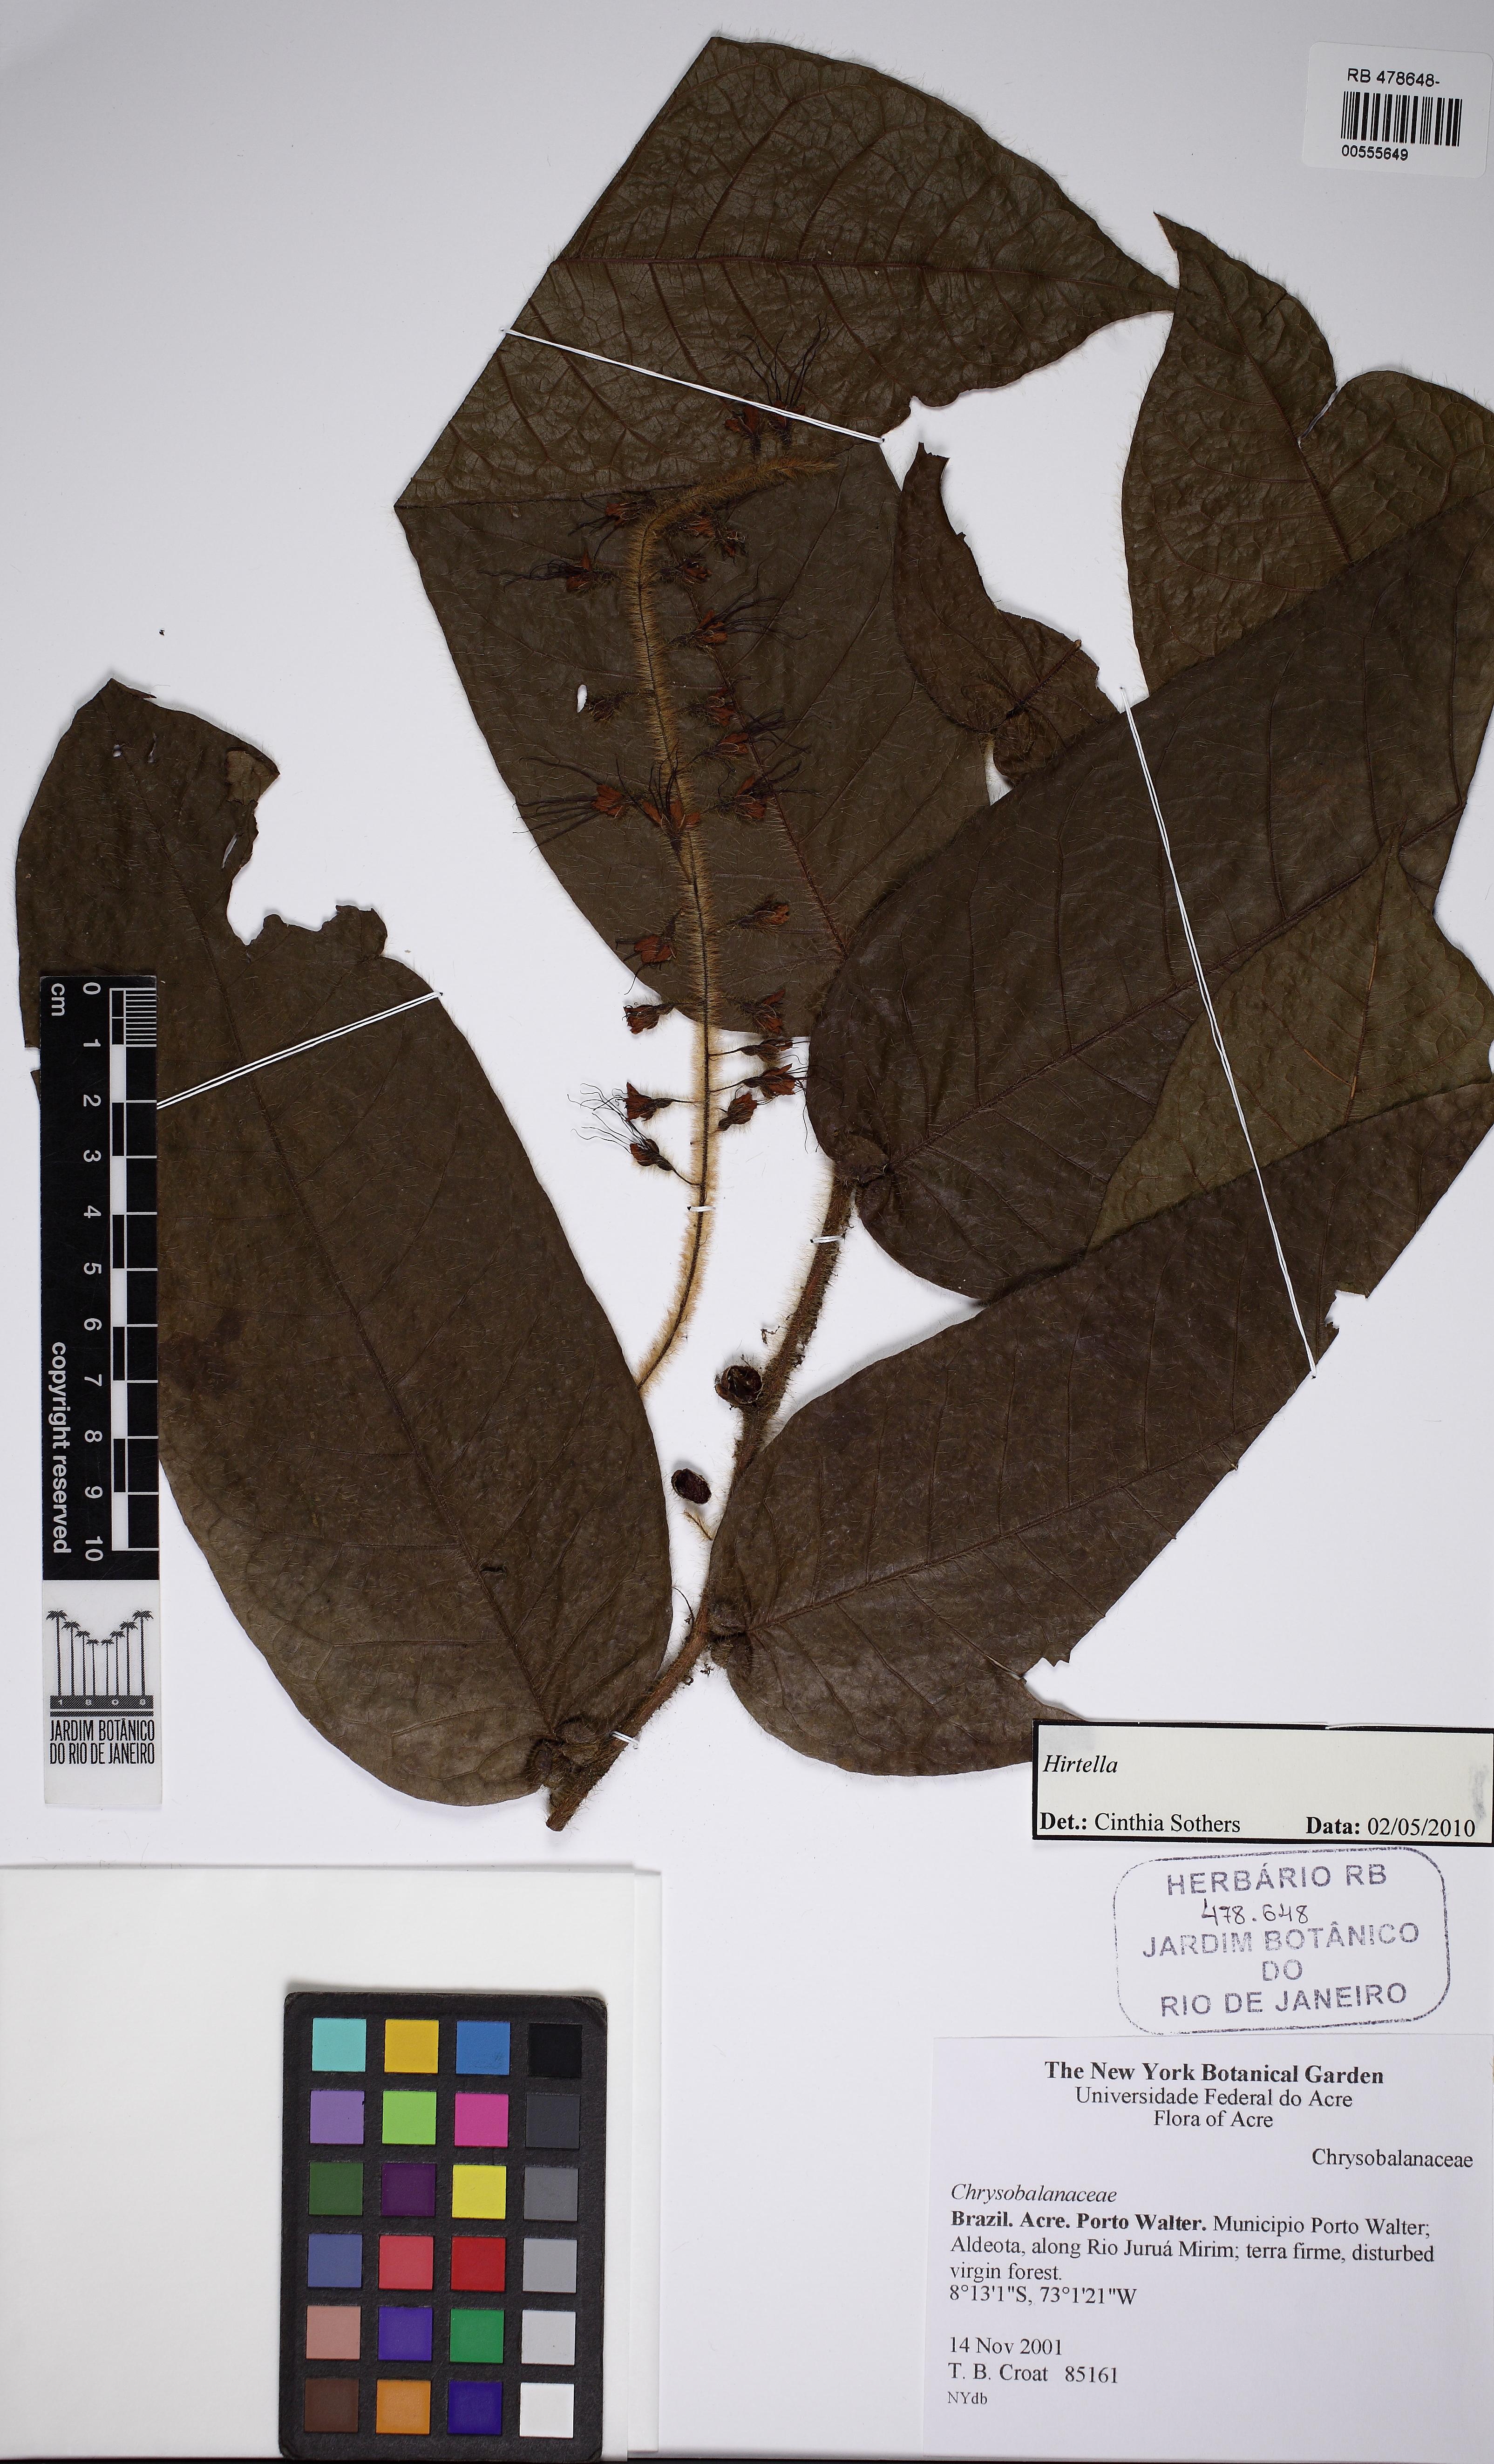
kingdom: Plantae
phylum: Tracheophyta
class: Magnoliopsida
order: Malpighiales
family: Chrysobalanaceae
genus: Hirtella
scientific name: Hirtella guainiae
